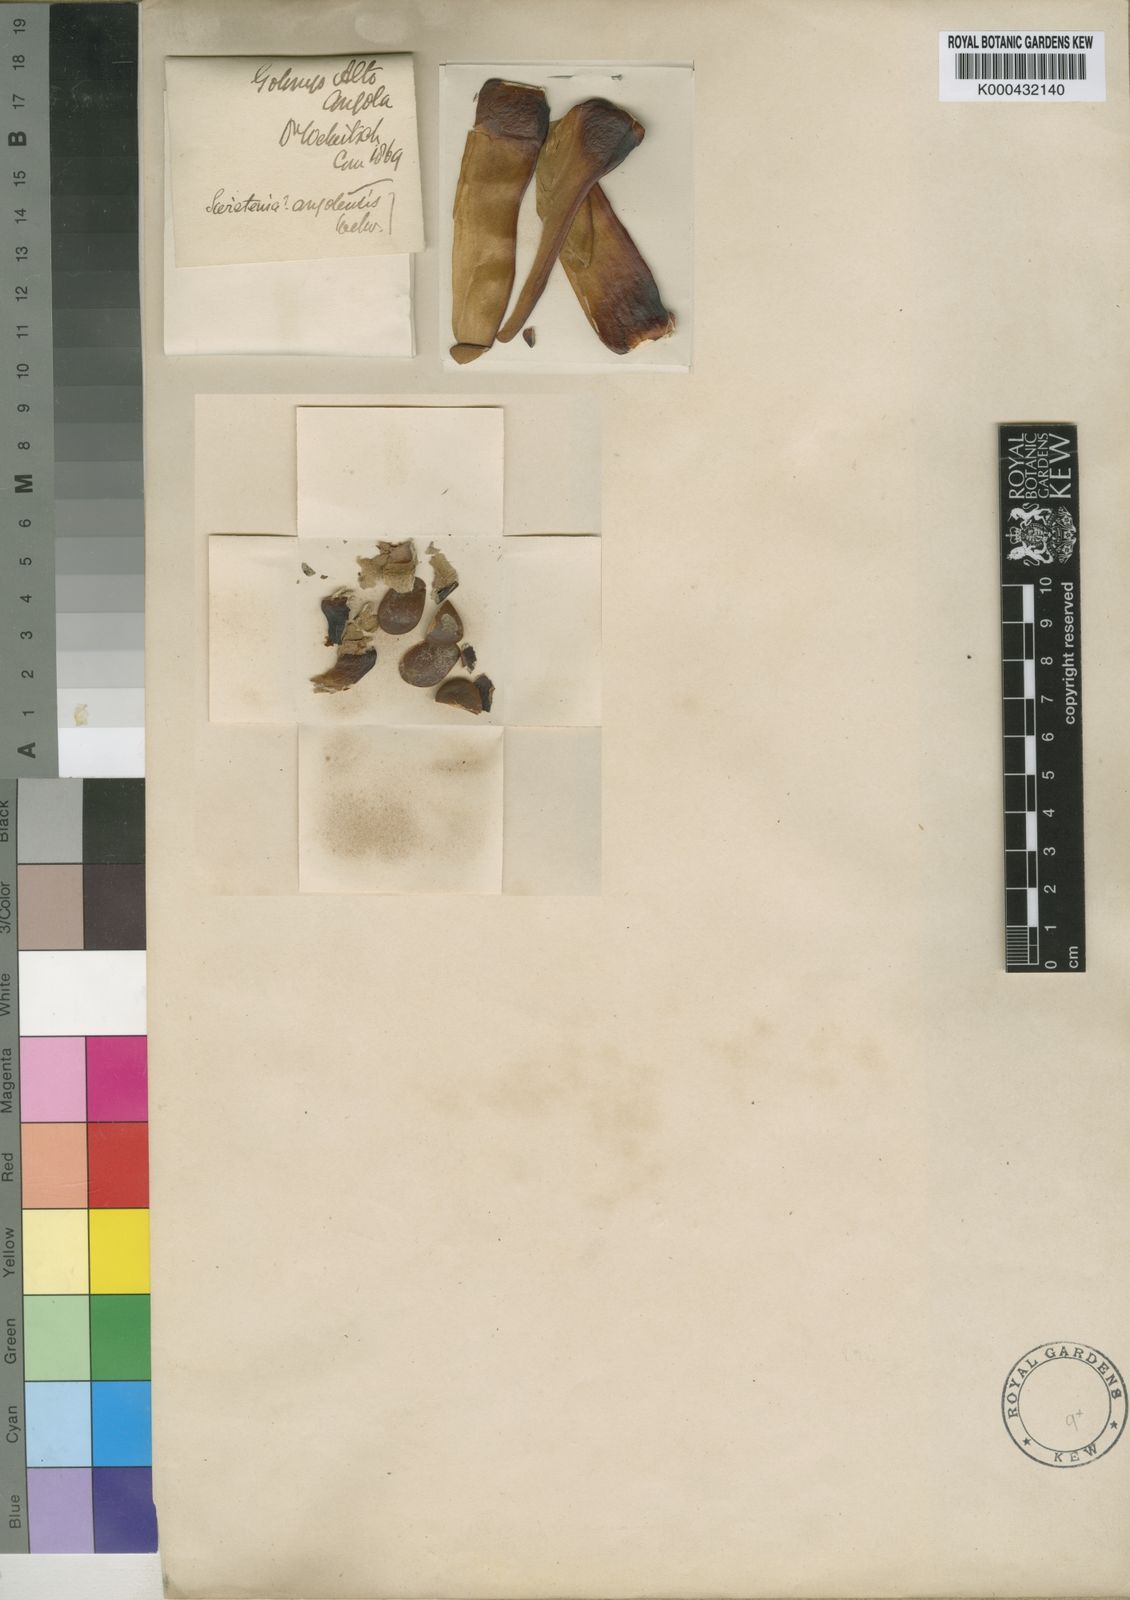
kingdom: Plantae
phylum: Tracheophyta
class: Magnoliopsida
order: Sapindales
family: Meliaceae
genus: Entandrophragma
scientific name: Entandrophragma
